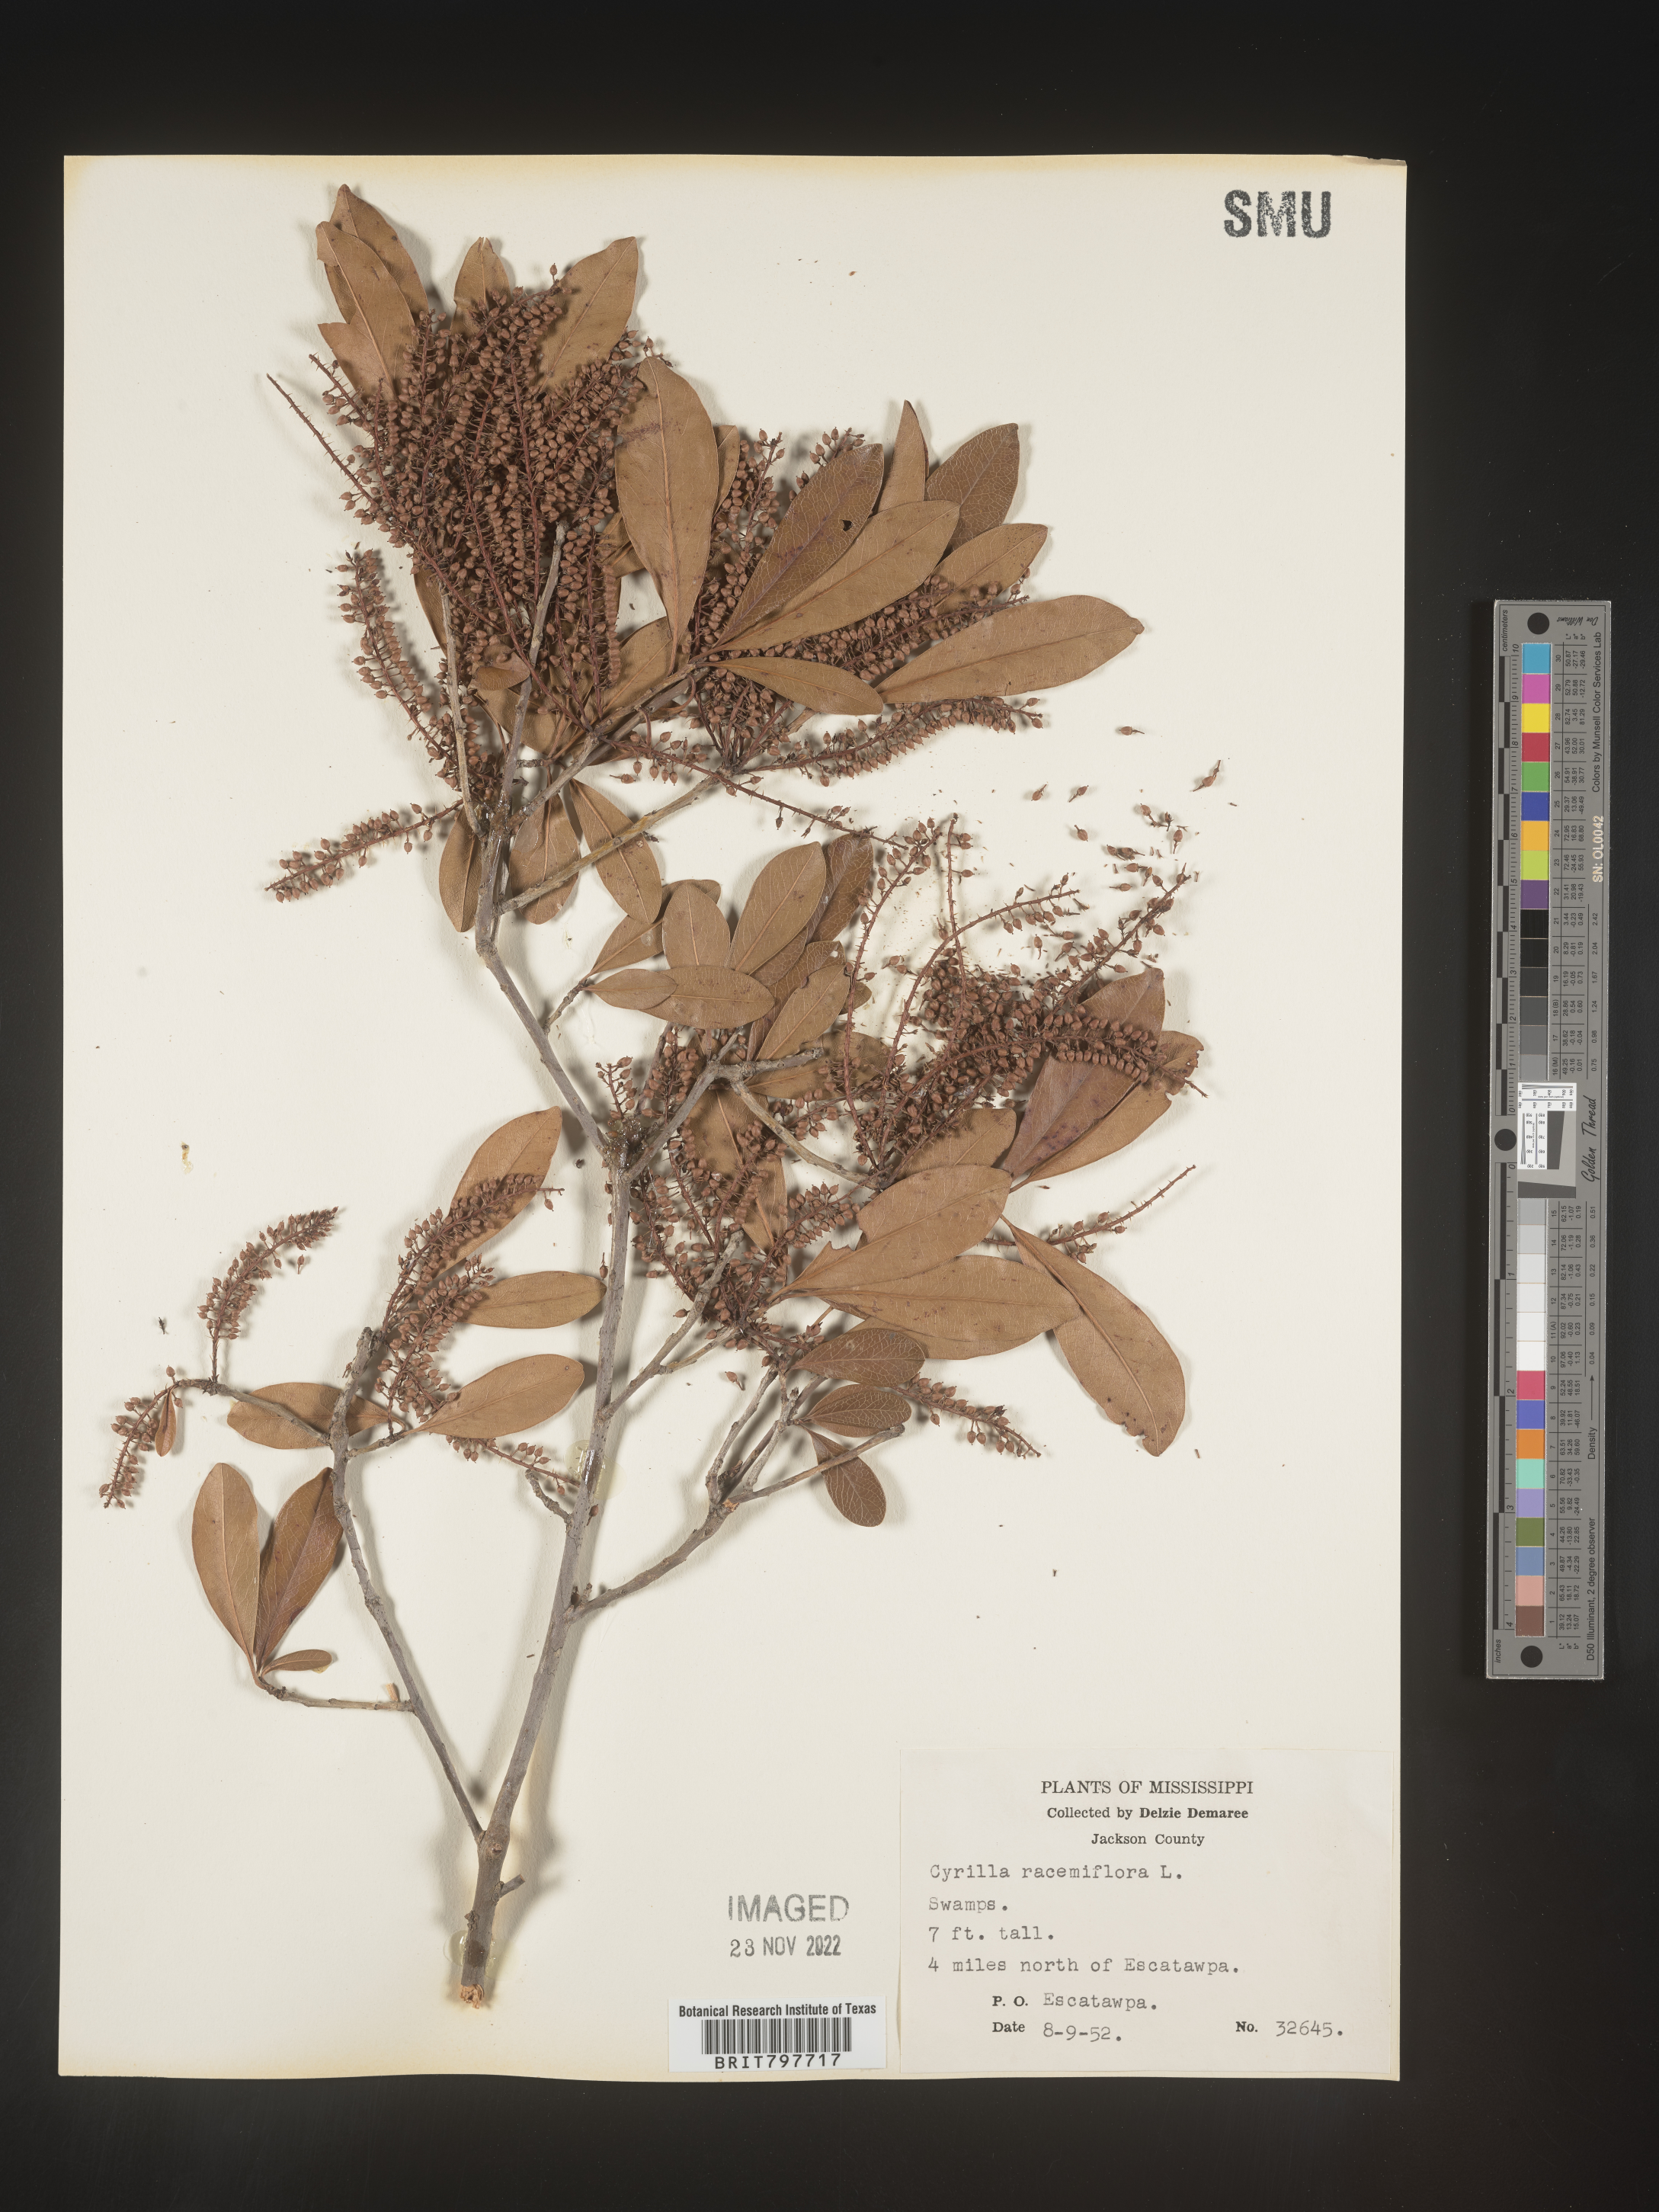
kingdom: Plantae
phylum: Tracheophyta
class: Magnoliopsida
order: Ericales
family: Cyrillaceae
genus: Cyrilla
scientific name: Cyrilla racemiflora
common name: Black titi
